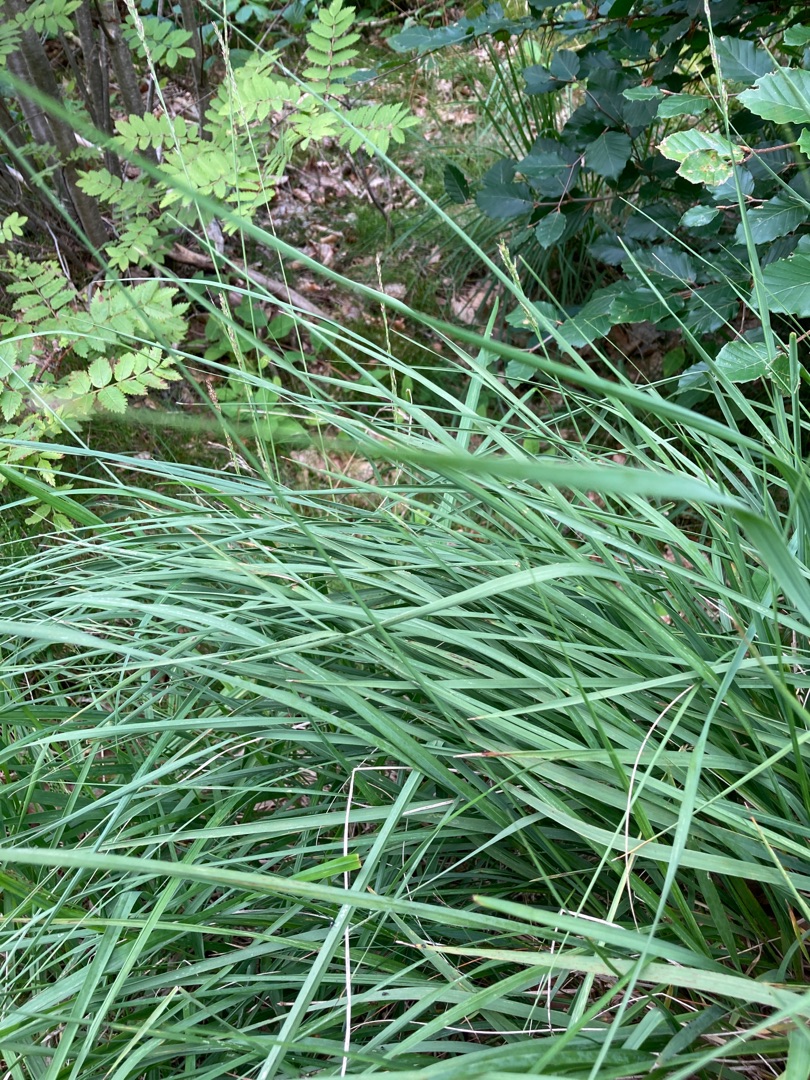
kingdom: Plantae
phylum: Tracheophyta
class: Liliopsida
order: Poales
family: Poaceae
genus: Molinia
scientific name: Molinia caerulea
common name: Blåtop
